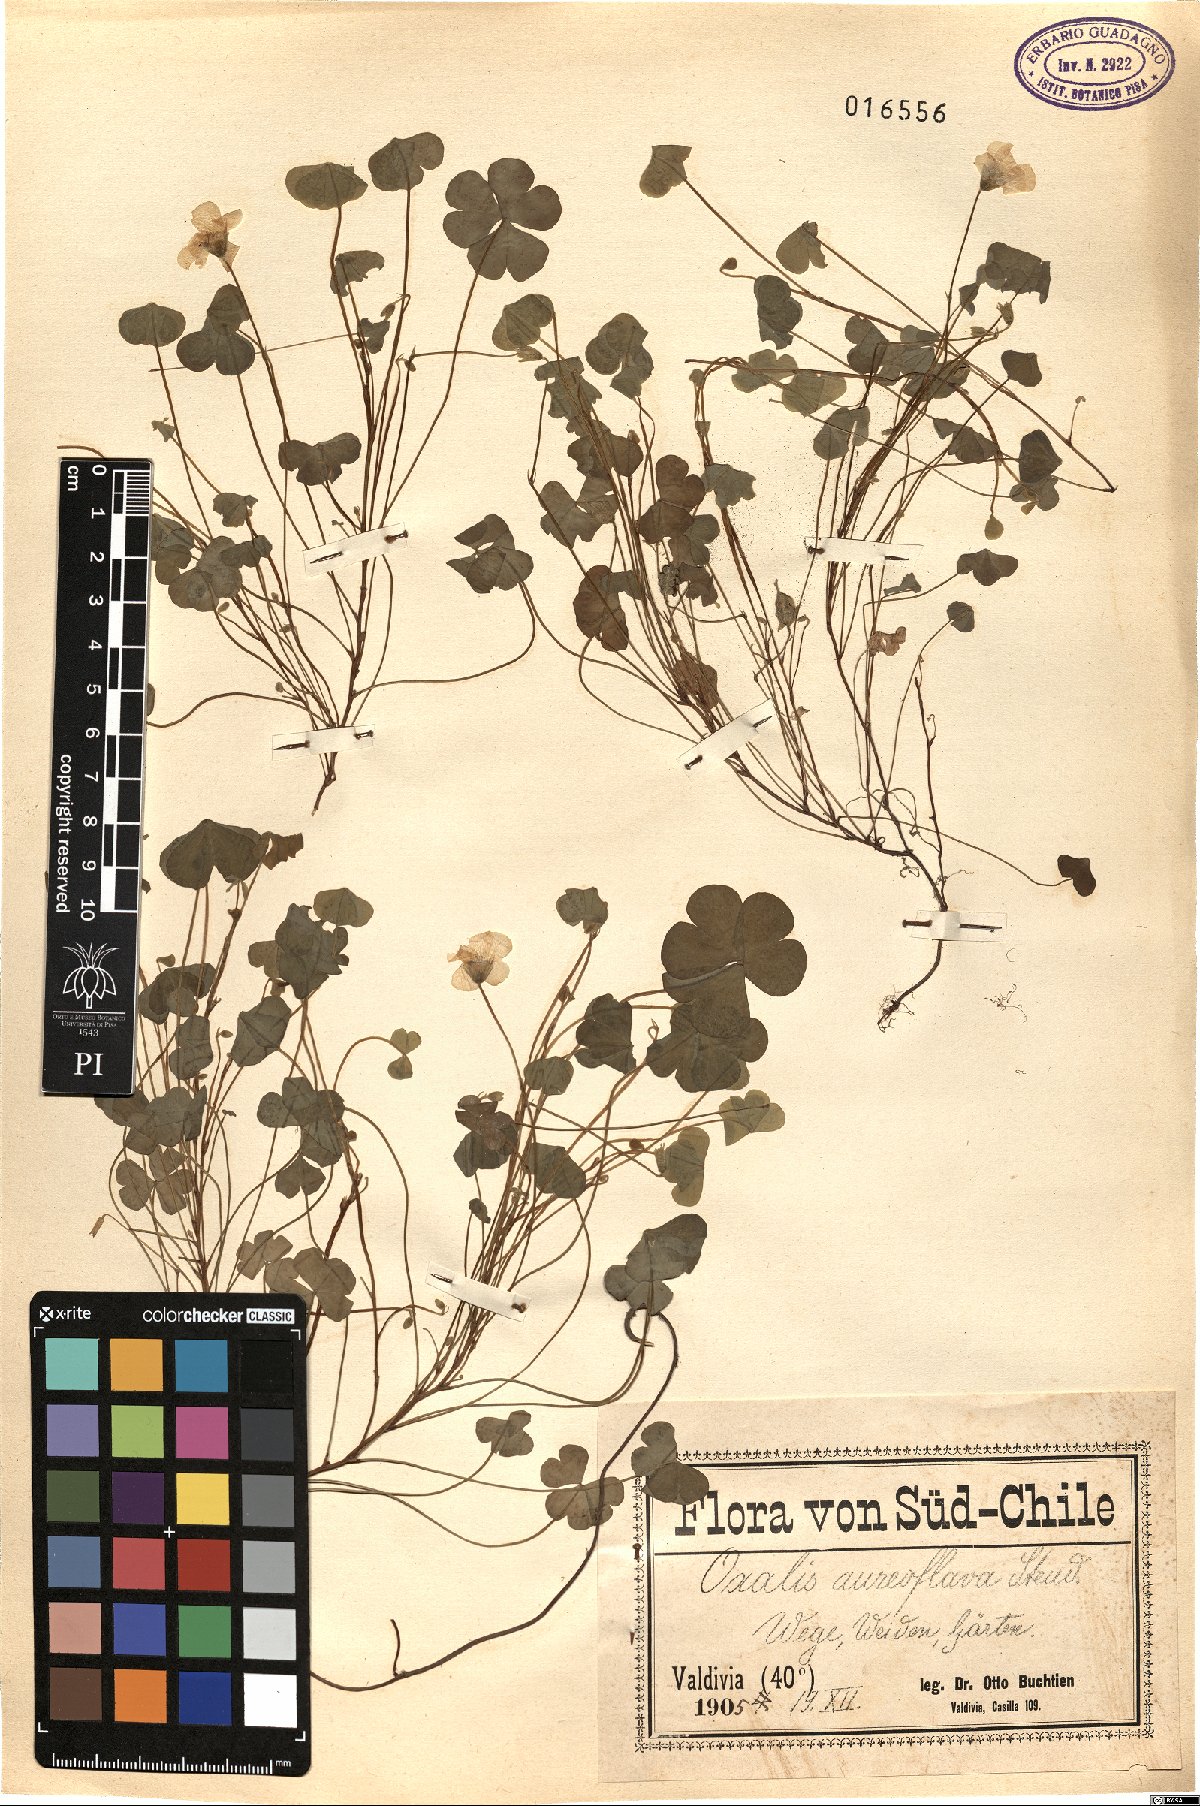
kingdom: Plantae
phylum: Tracheophyta
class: Magnoliopsida
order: Oxalidales
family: Oxalidaceae
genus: Oxalis
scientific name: Oxalis aureoflava
